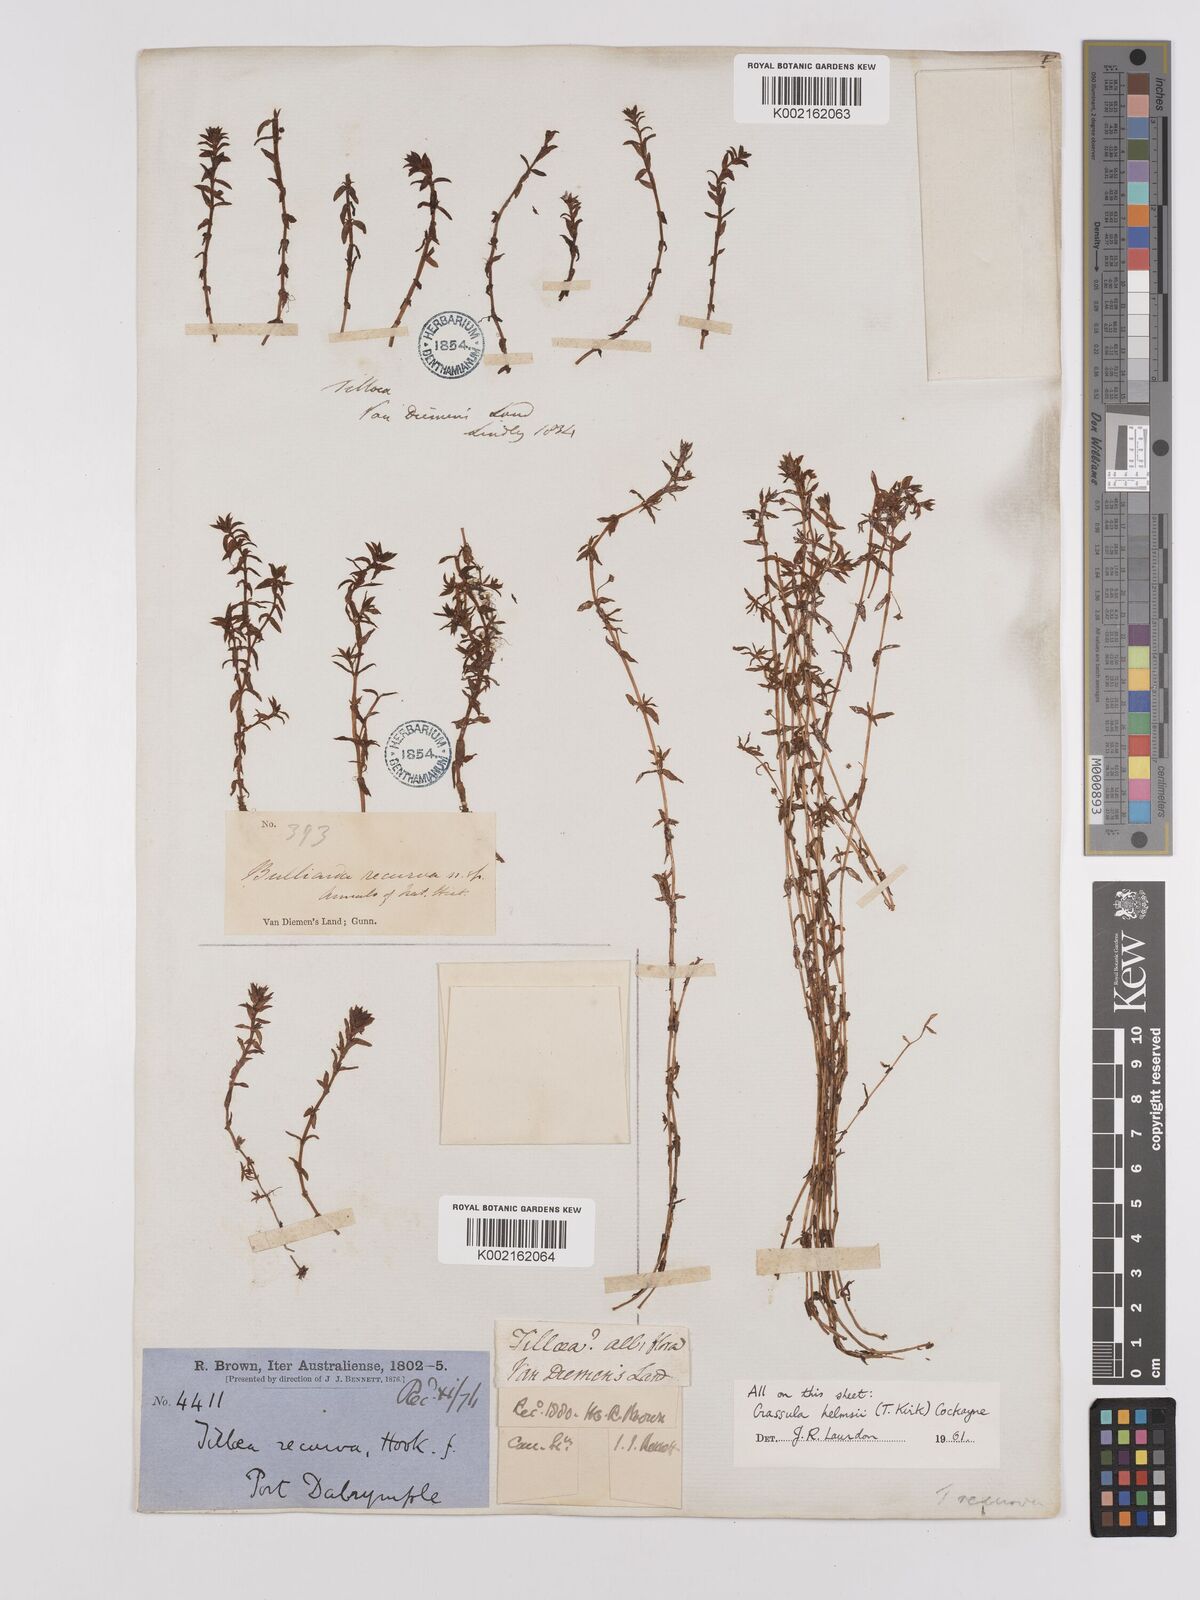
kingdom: Plantae
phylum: Tracheophyta
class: Magnoliopsida
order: Saxifragales
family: Crassulaceae
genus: Crassula
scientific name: Crassula helmsii
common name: New zealand pigmyweed
